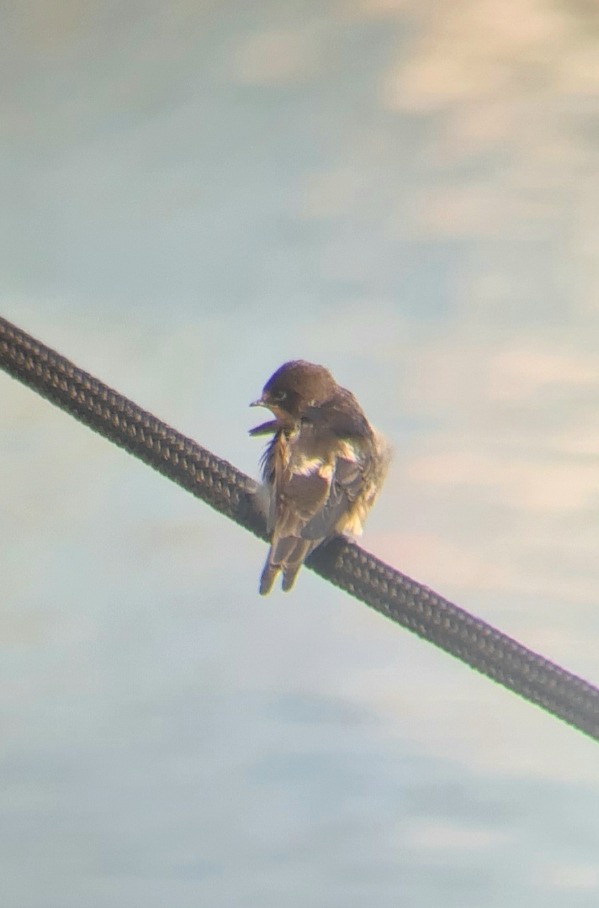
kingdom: Animalia
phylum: Chordata
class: Aves
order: Passeriformes
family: Hirundinidae
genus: Hirundo
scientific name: Hirundo rustica
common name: Landsvale
